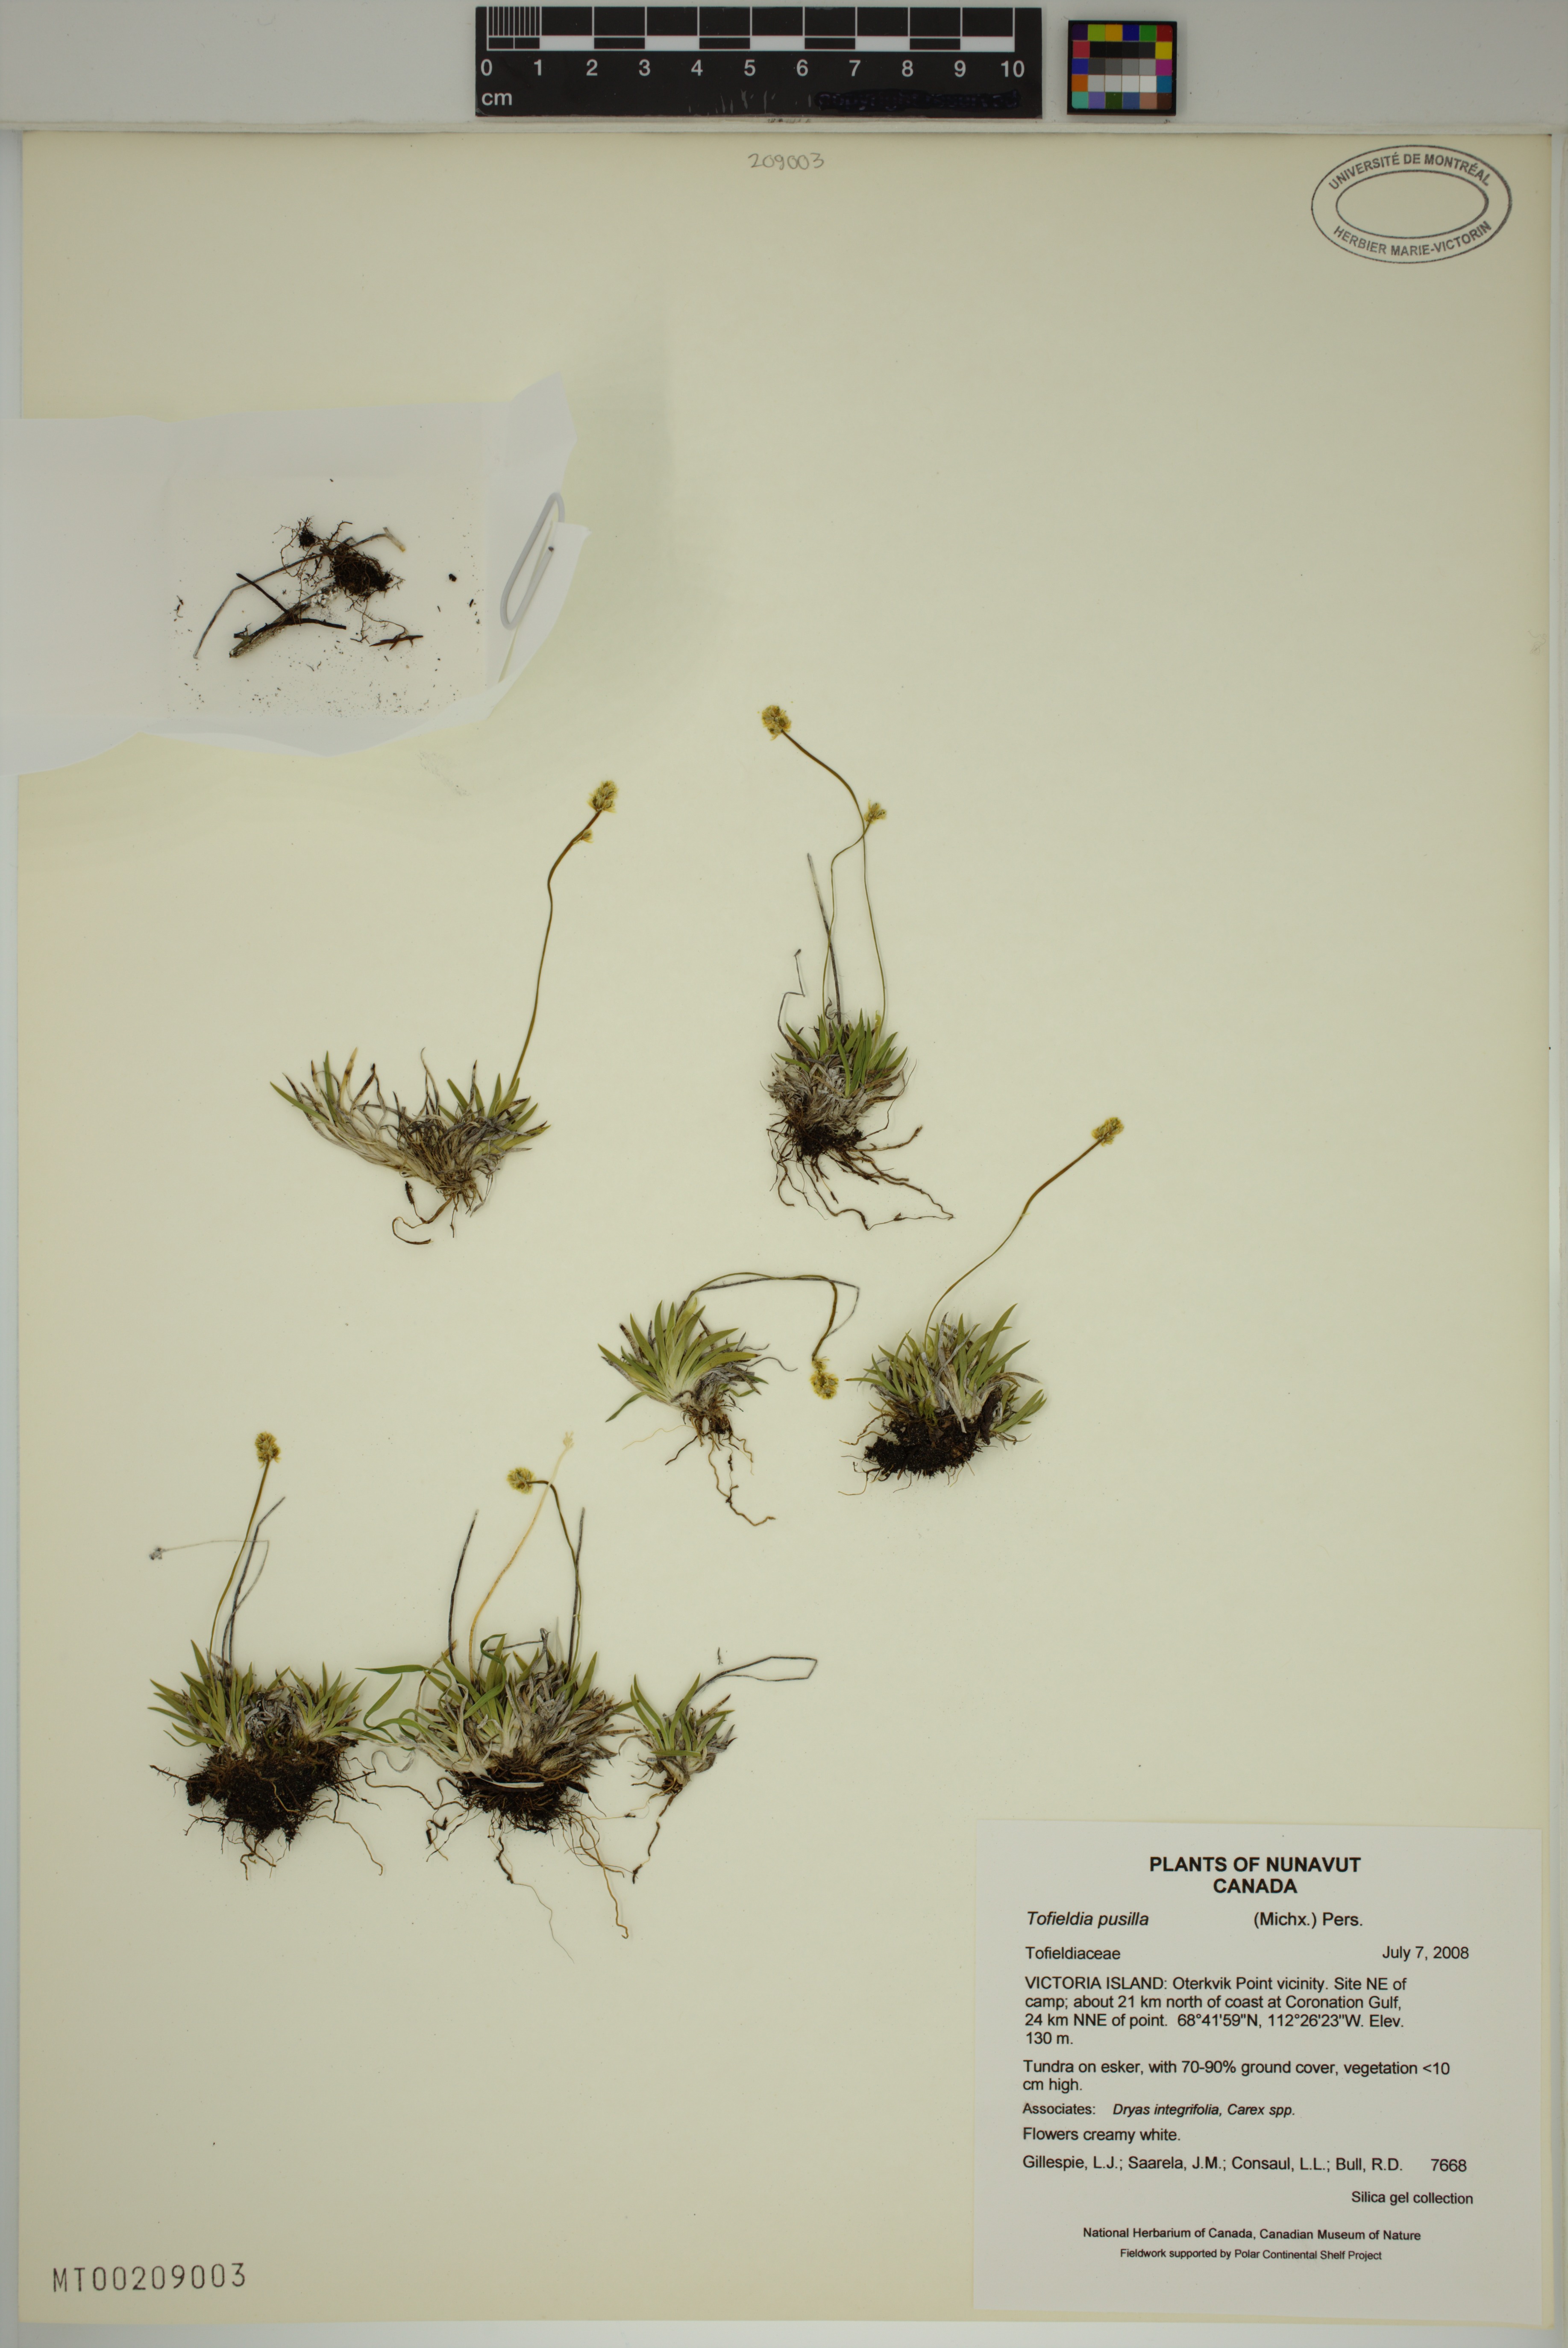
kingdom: Plantae
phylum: Tracheophyta
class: Liliopsida
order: Alismatales
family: Tofieldiaceae
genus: Tofieldia
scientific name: Tofieldia pusilla
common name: Scottish false asphodel
